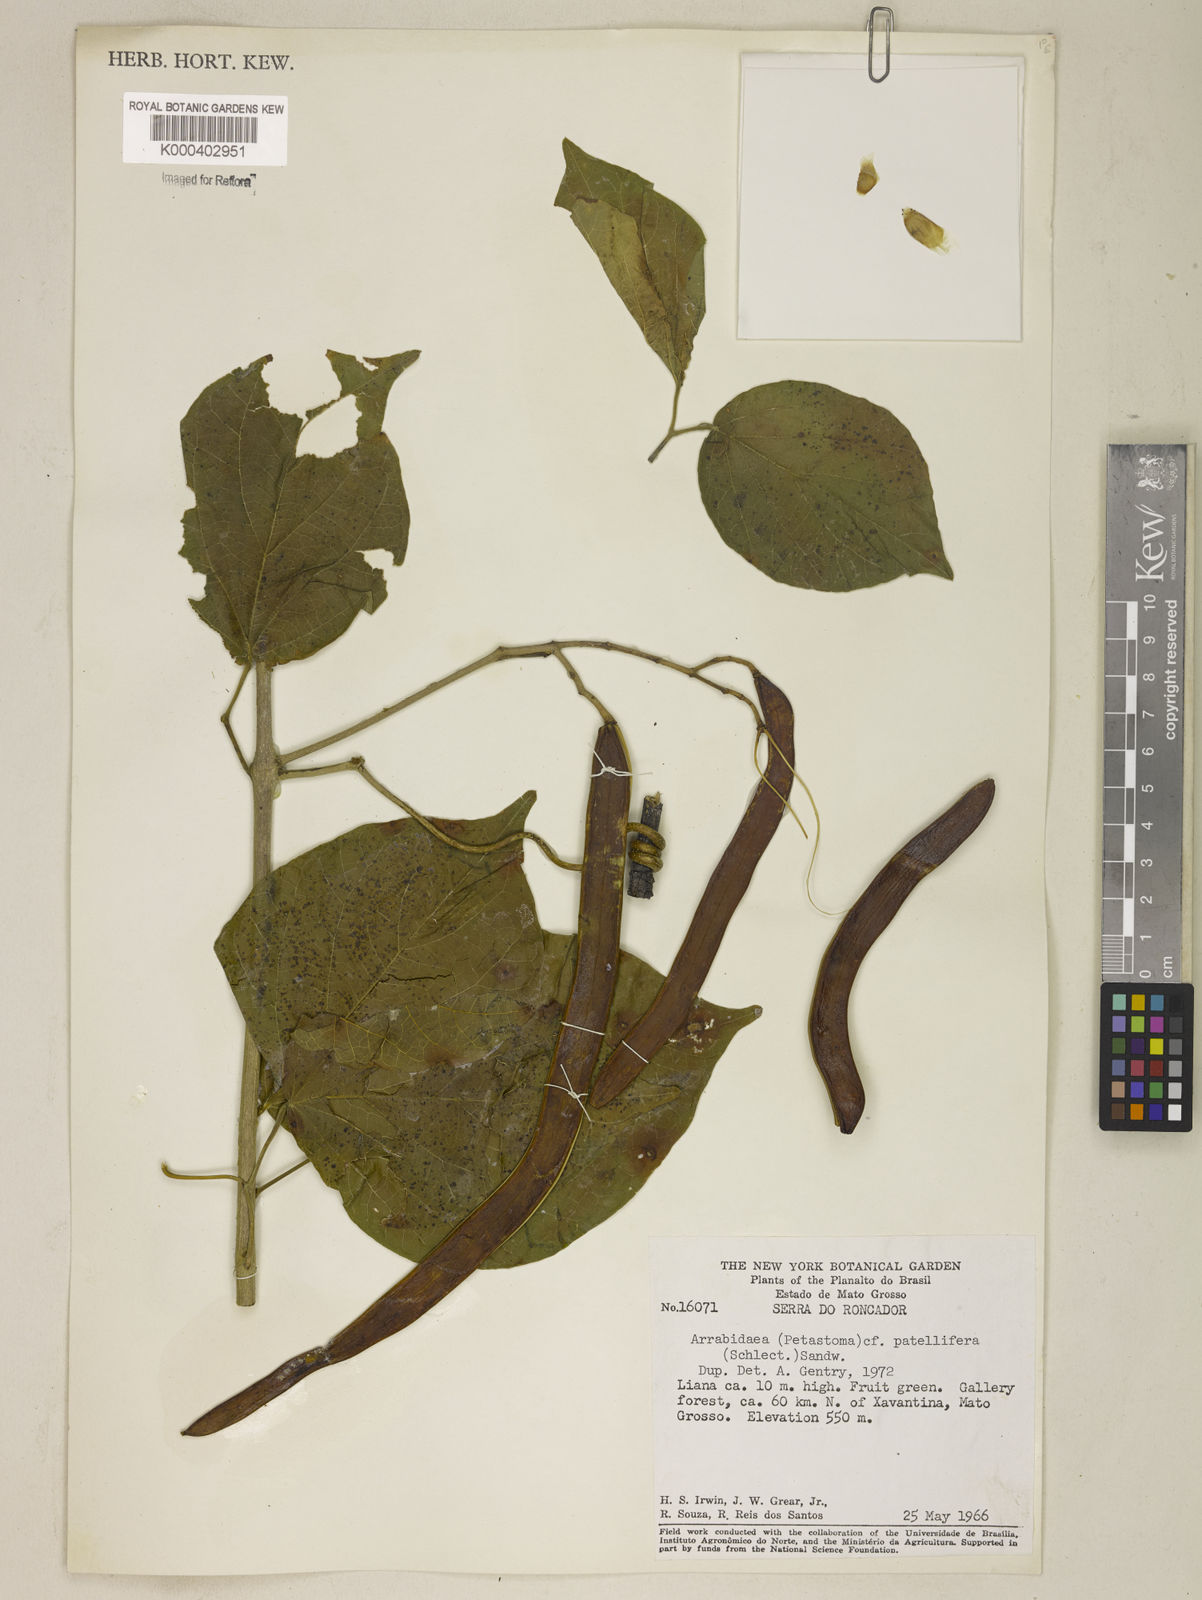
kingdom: Plantae
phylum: Tracheophyta
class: Magnoliopsida
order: Lamiales
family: Bignoniaceae
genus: Fridericia
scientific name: Fridericia patellifera
